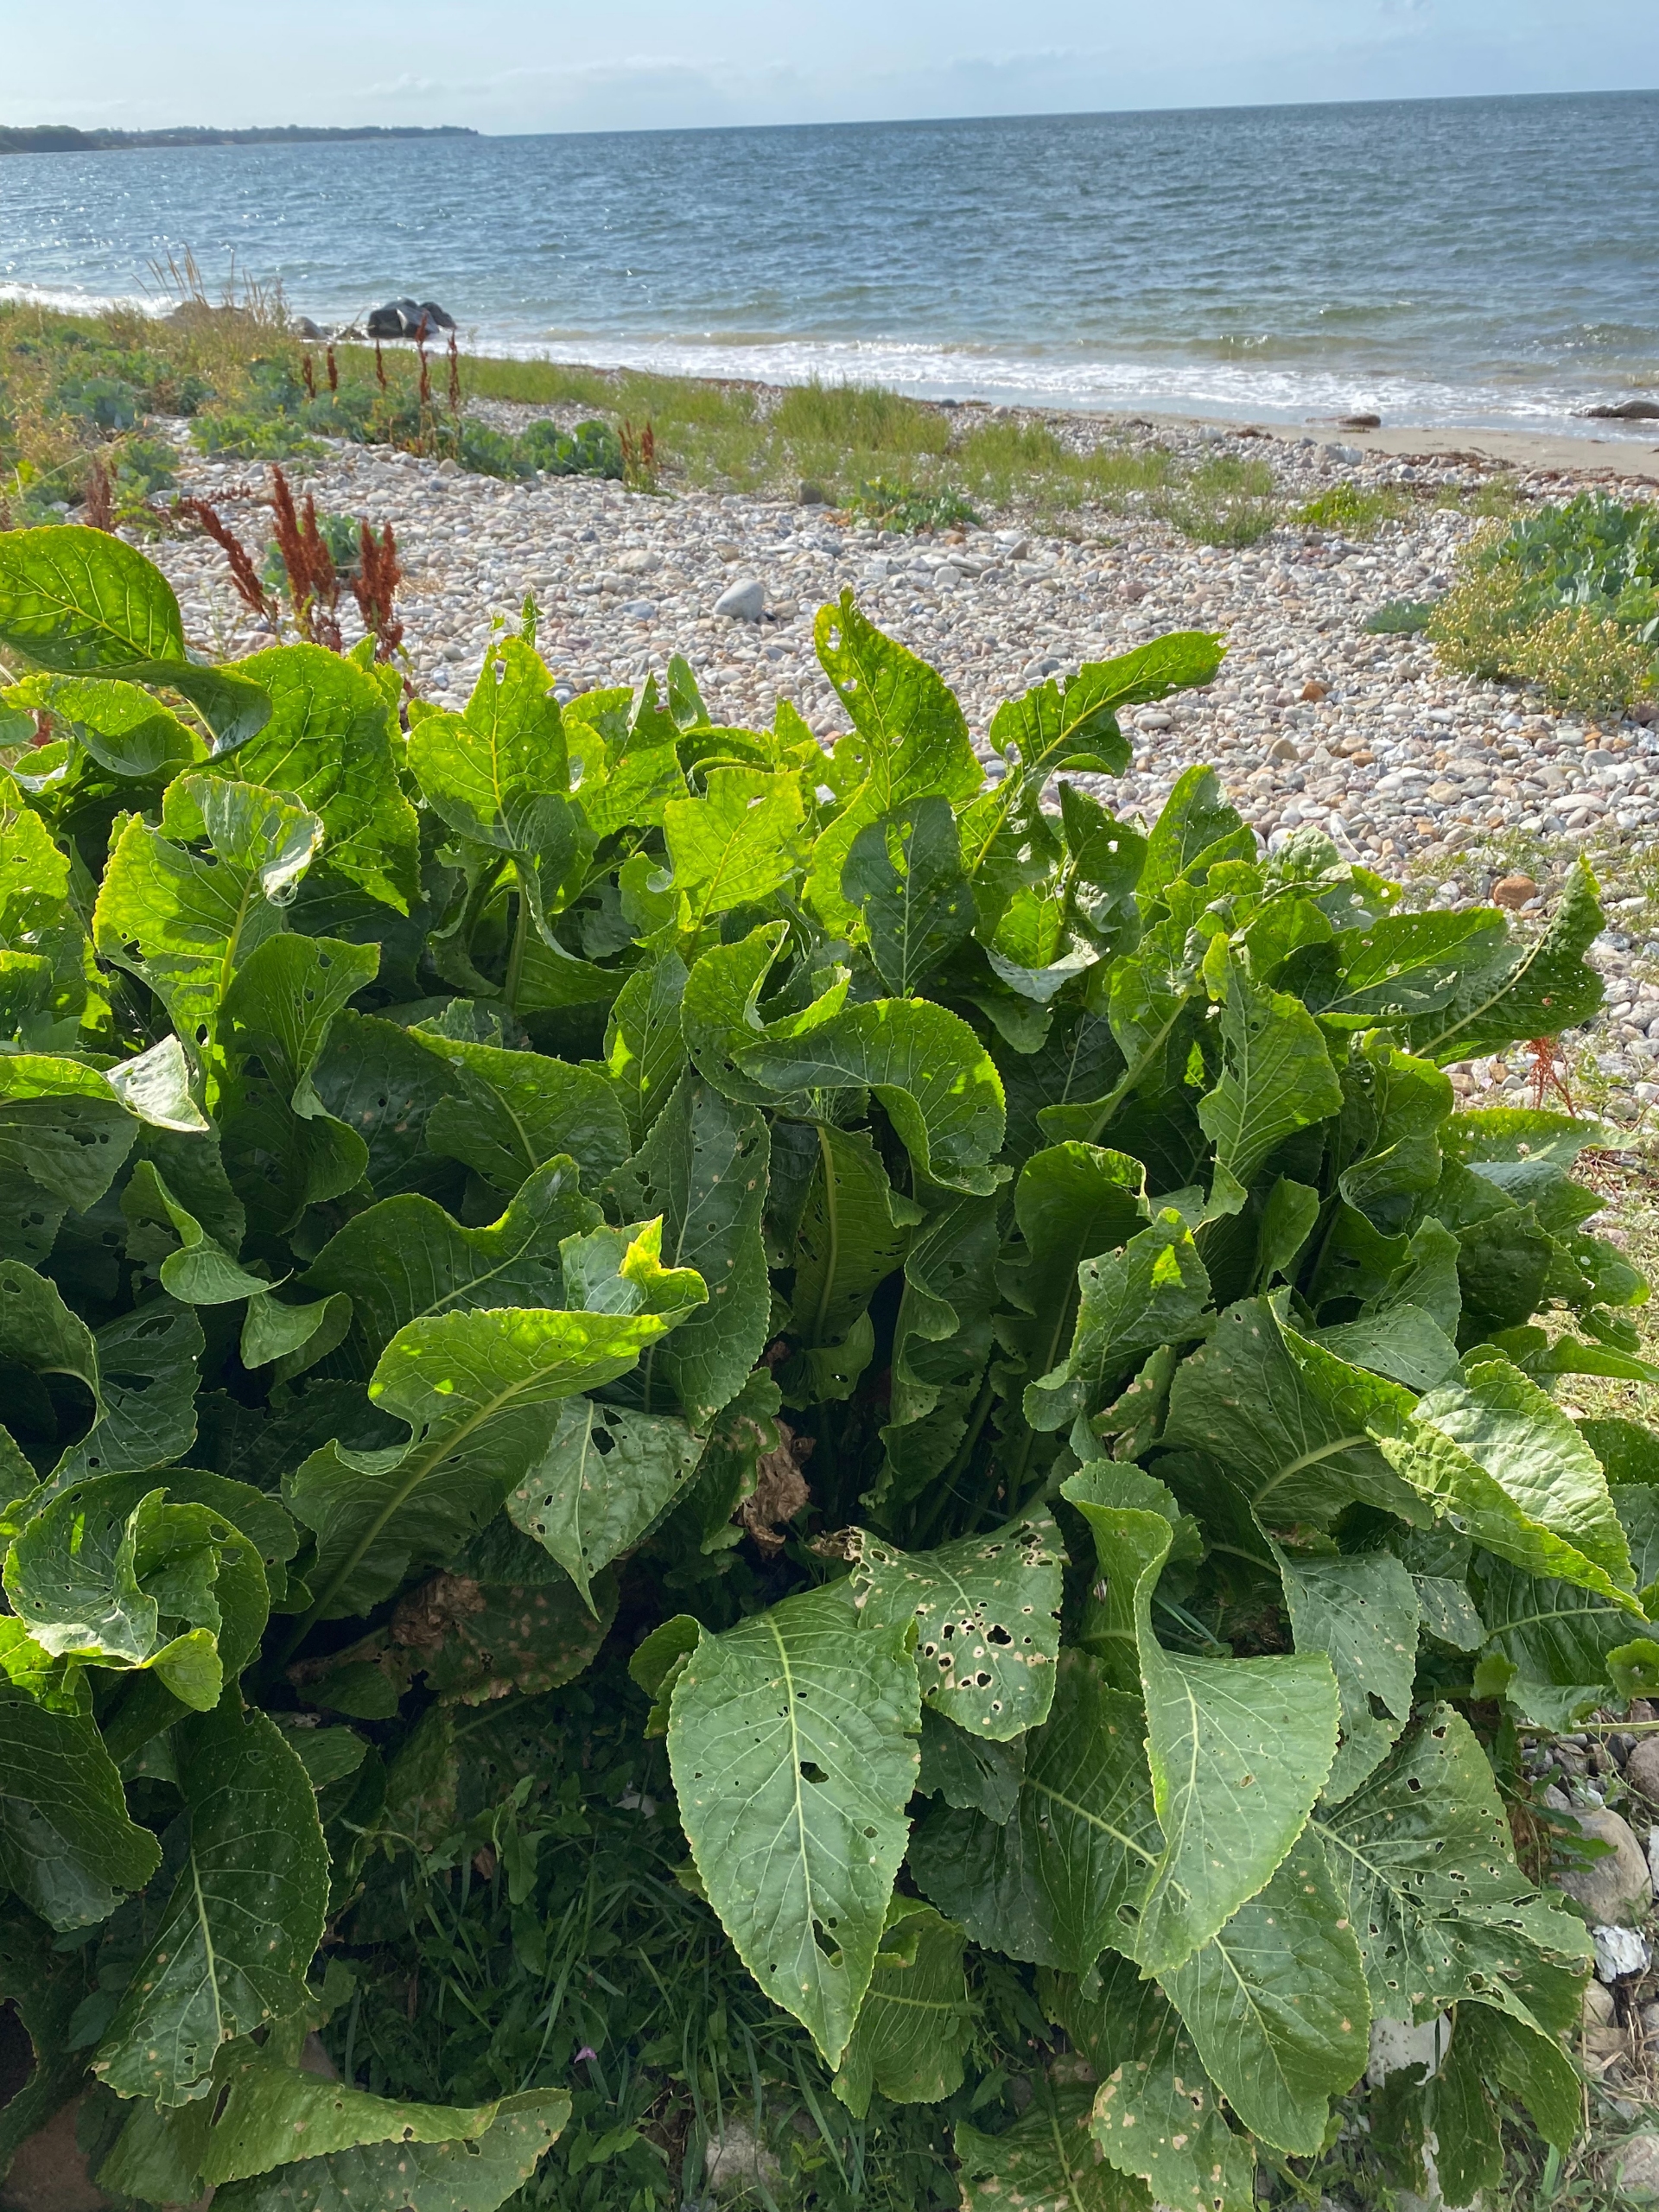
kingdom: Plantae
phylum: Tracheophyta
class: Magnoliopsida
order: Brassicales
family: Brassicaceae
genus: Armoracia
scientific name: Armoracia rusticana
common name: Peberrod
